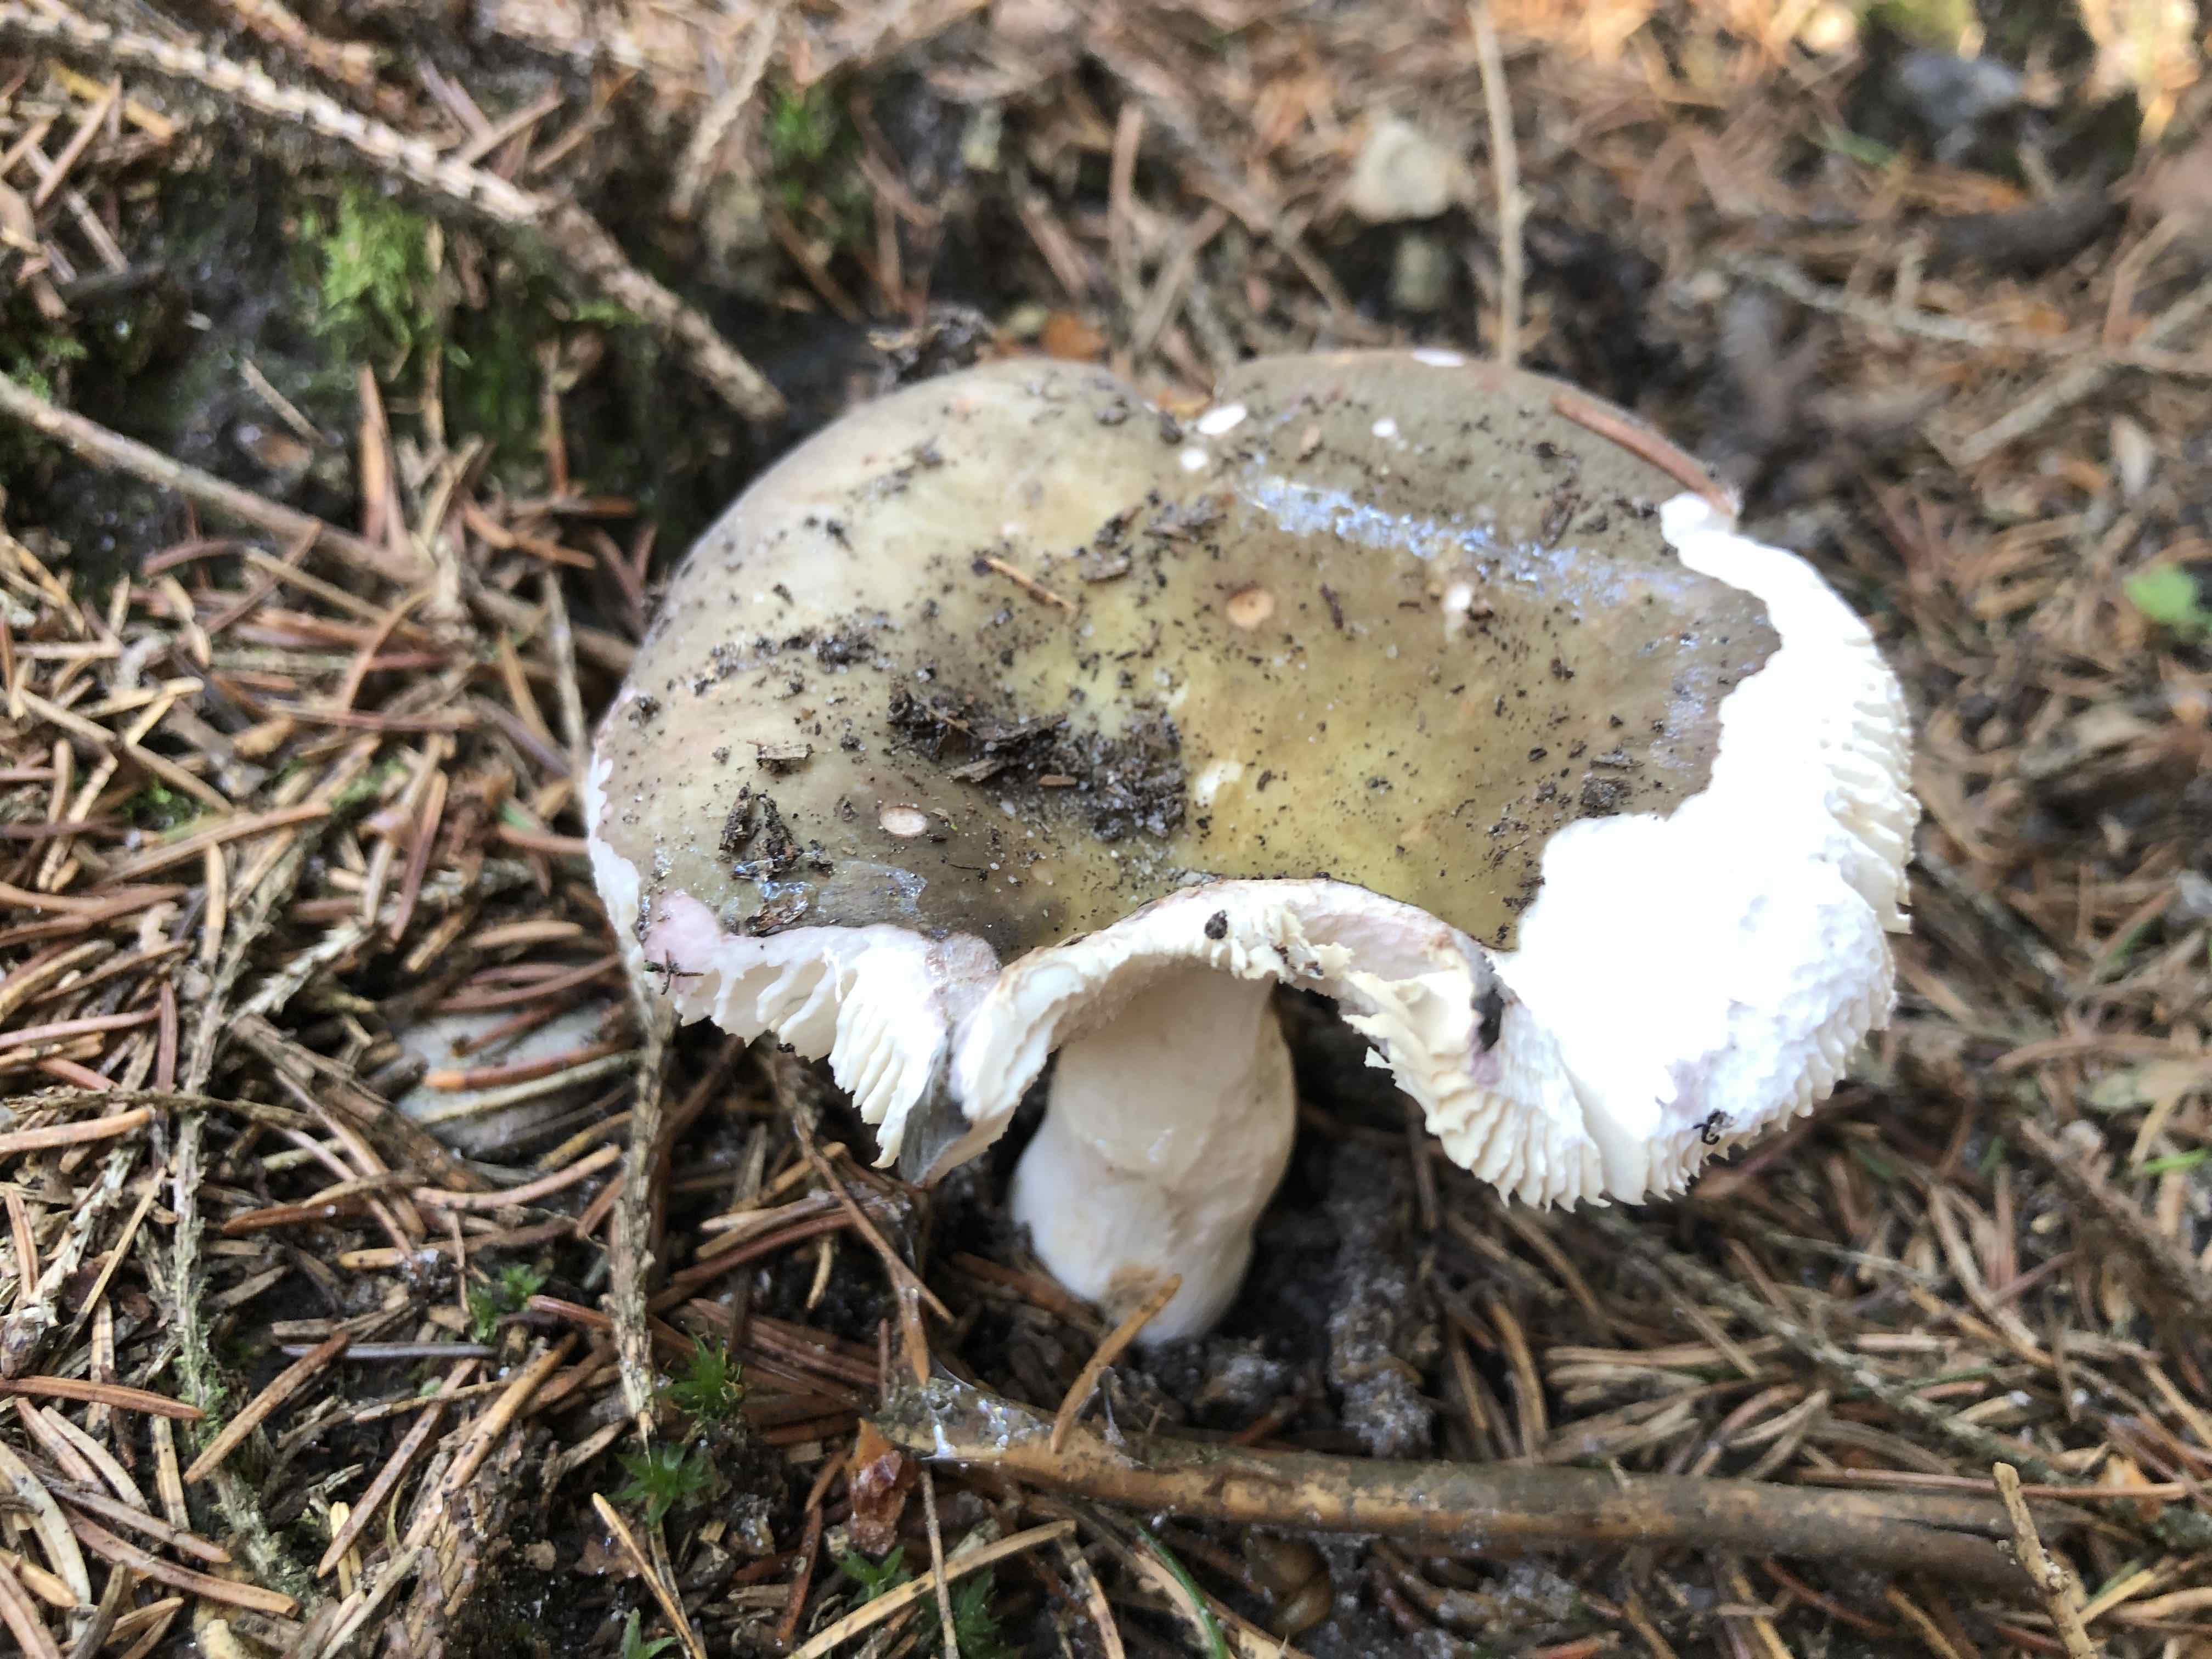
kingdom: Fungi
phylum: Basidiomycota
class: Agaricomycetes
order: Russulales
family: Russulaceae
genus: Russula
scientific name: Russula heterophylla
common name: gaffelbladet skørhat
